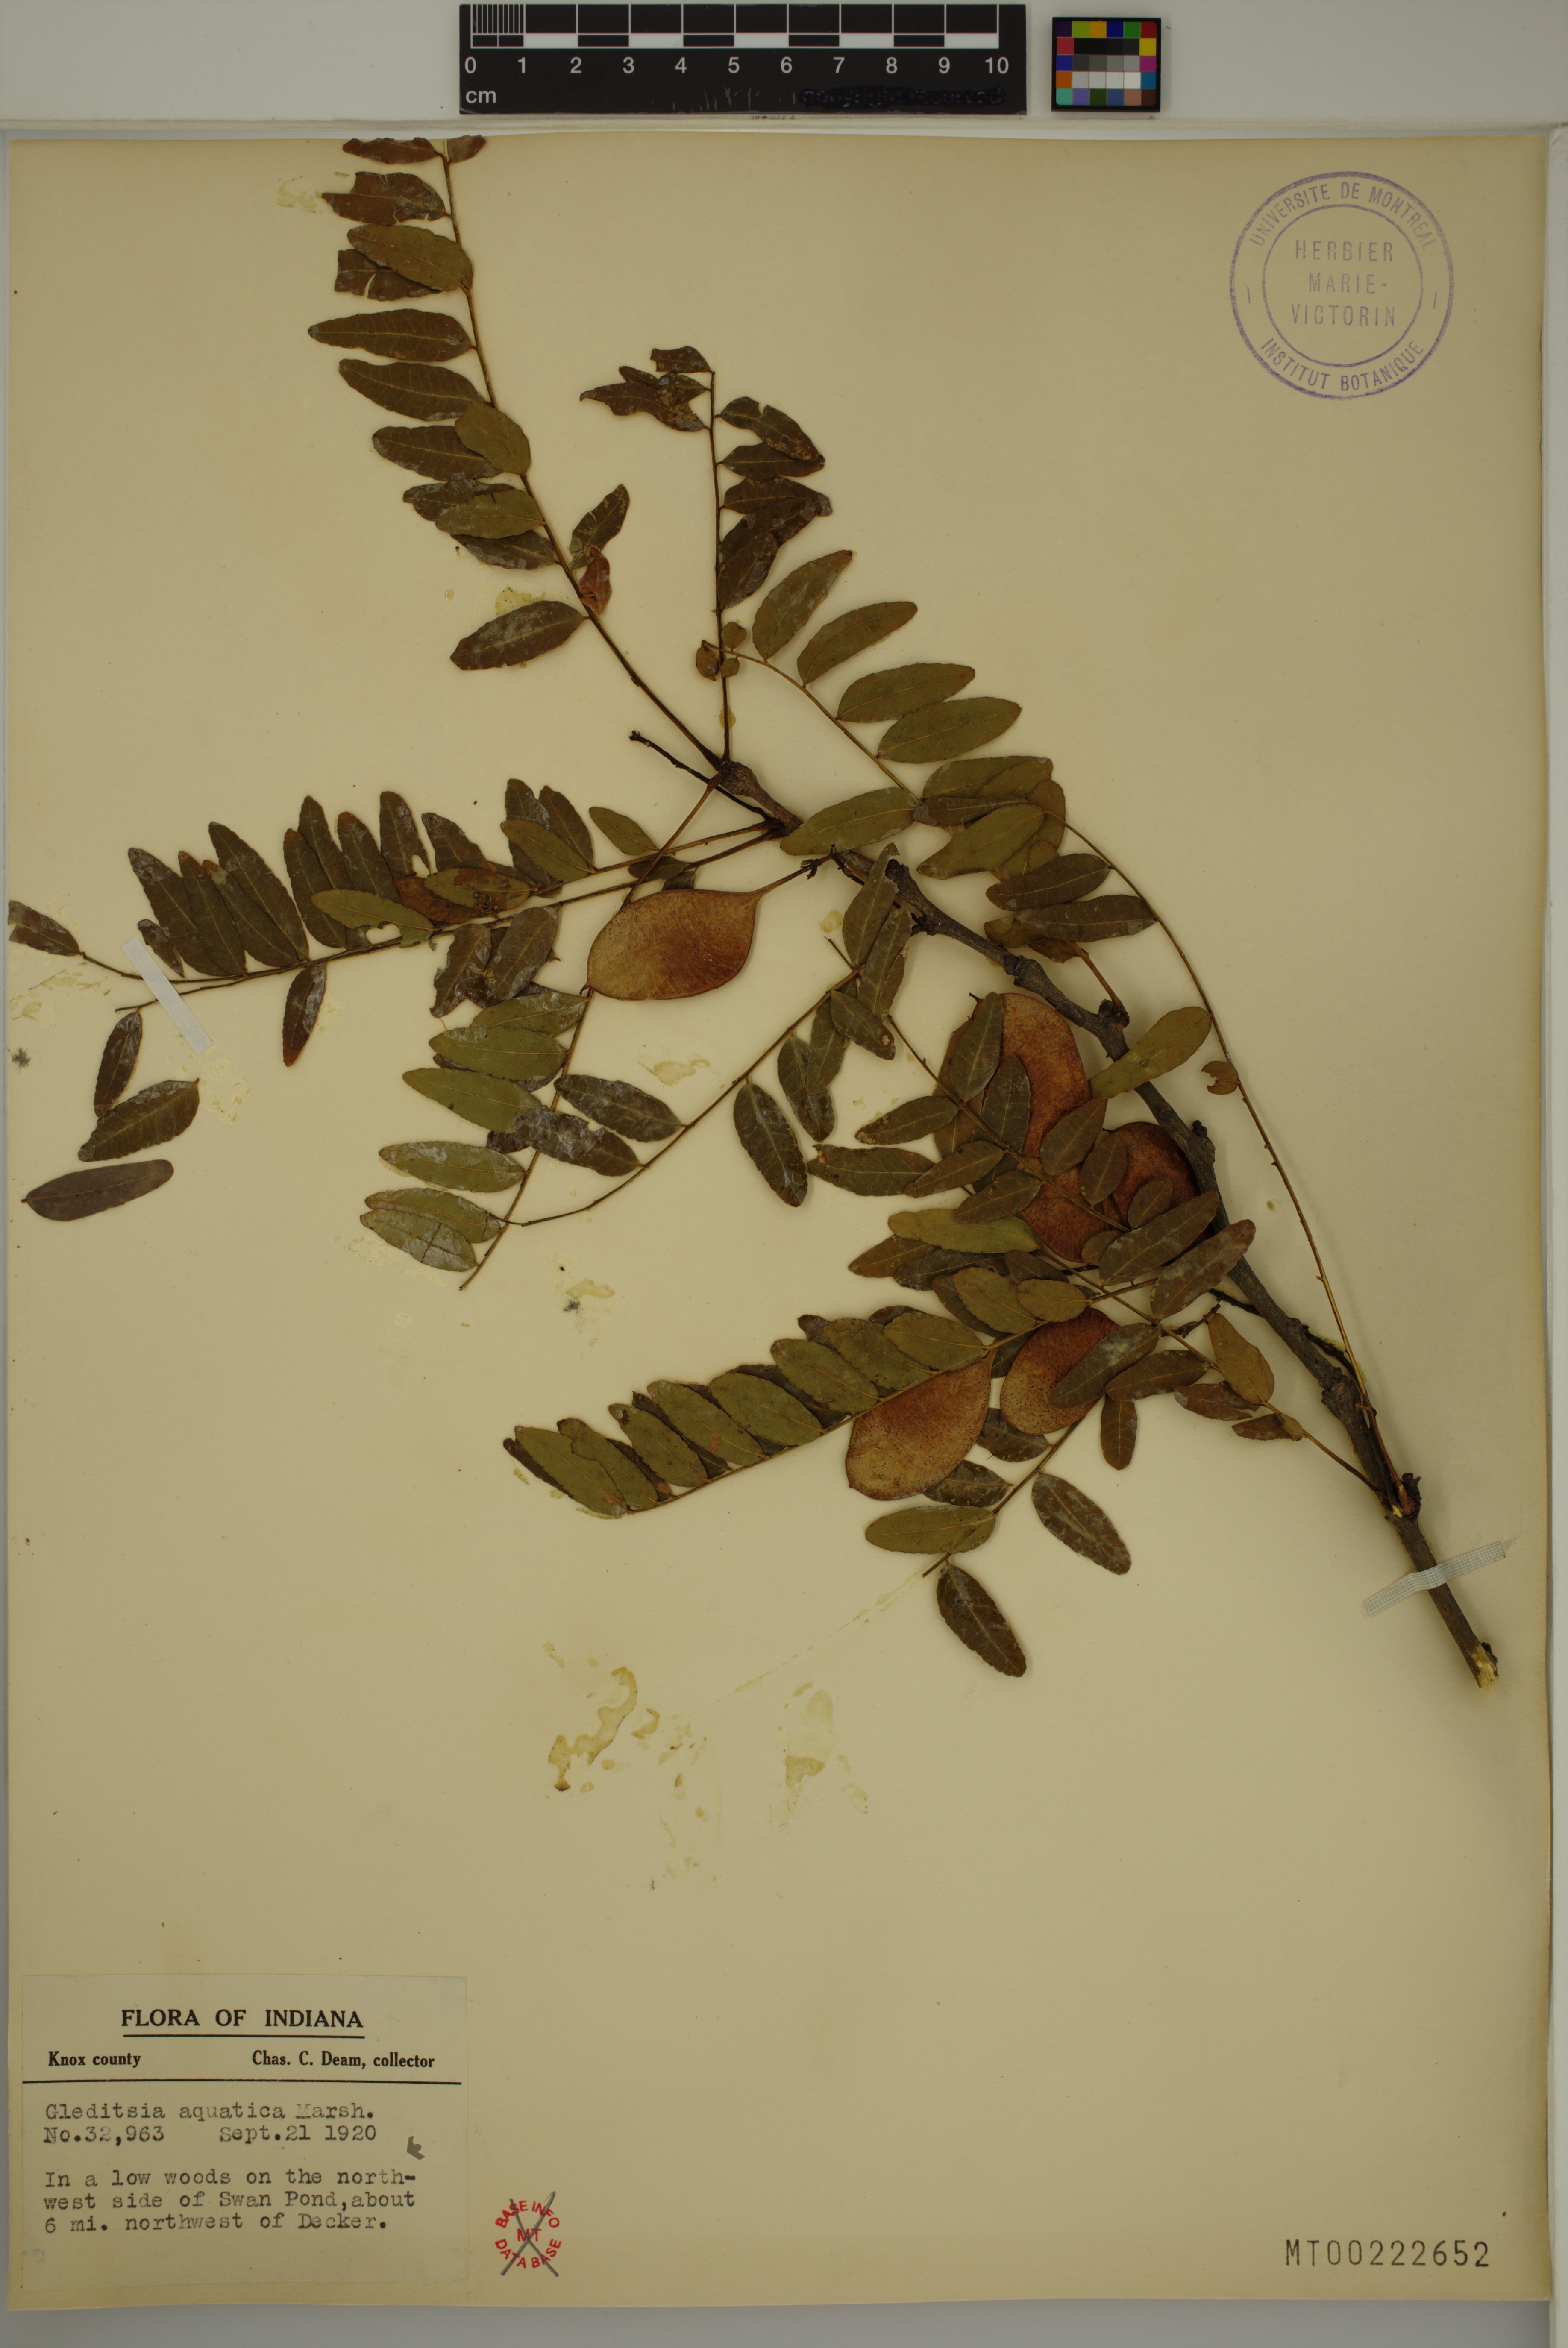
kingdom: Plantae
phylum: Tracheophyta
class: Magnoliopsida
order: Fabales
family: Fabaceae
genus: Gleditsia
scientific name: Gleditsia aquatica
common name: Swamp-locust
